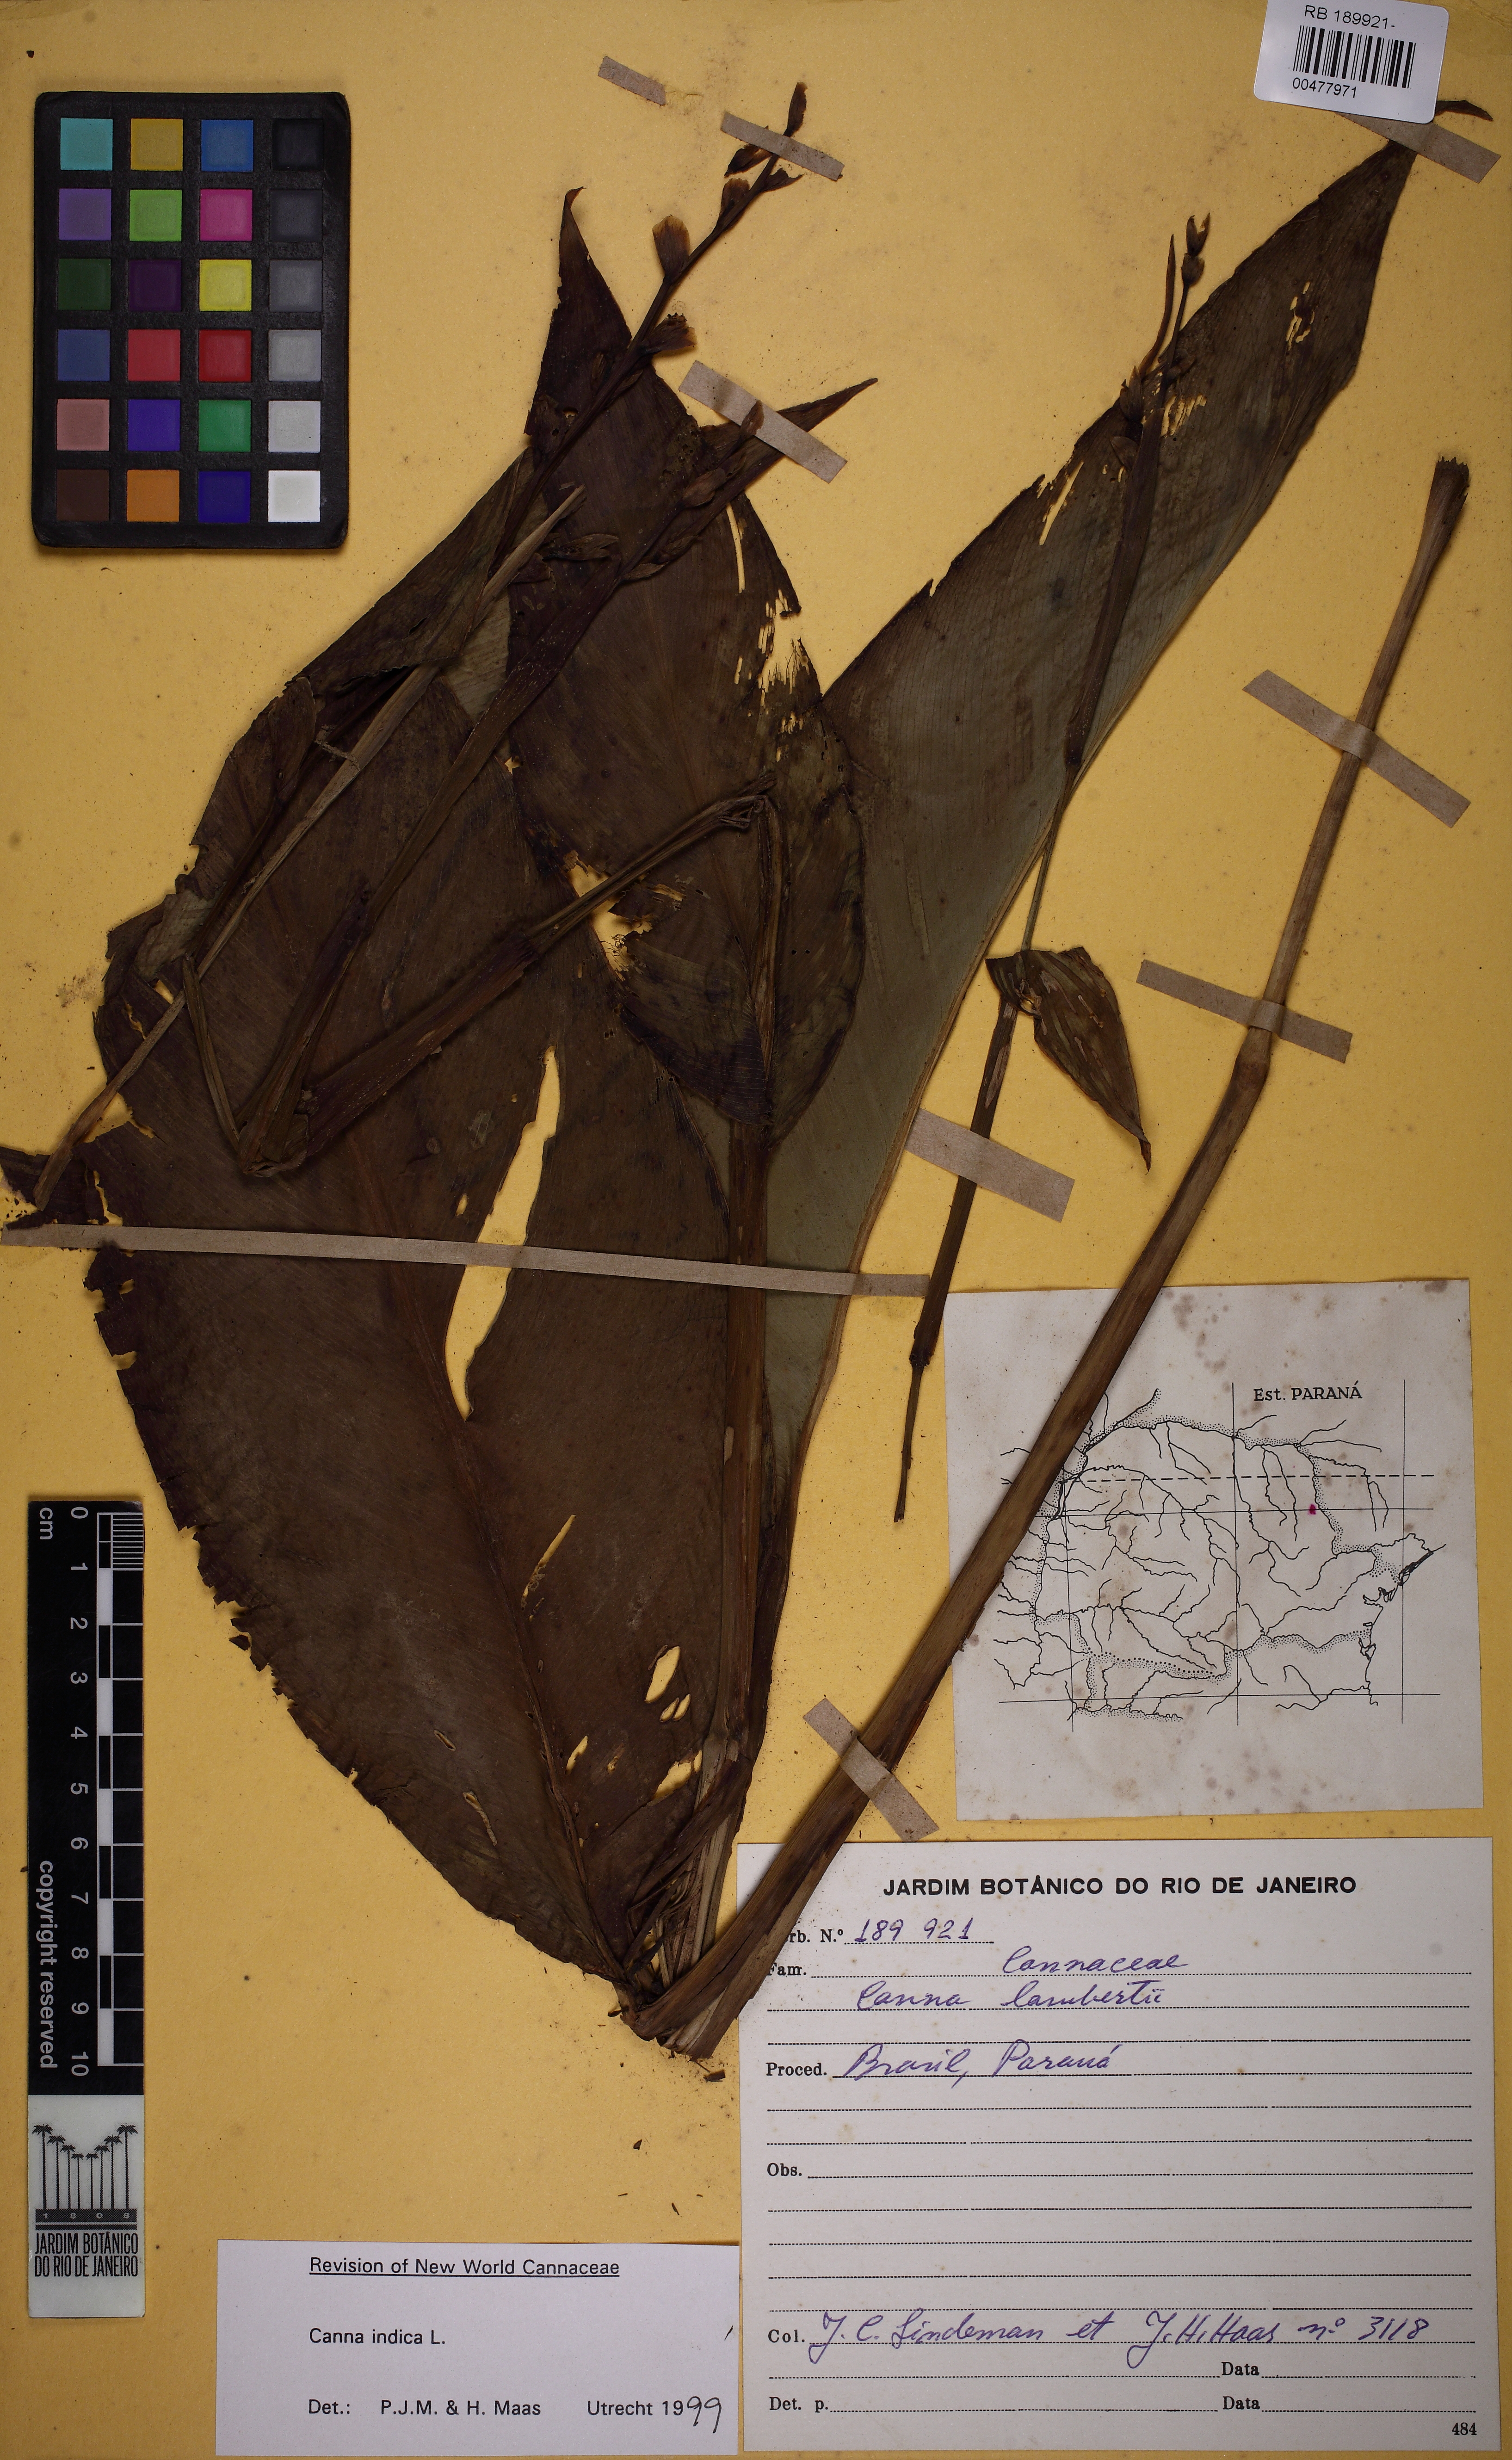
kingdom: Plantae
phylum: Tracheophyta
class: Liliopsida
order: Zingiberales
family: Cannaceae
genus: Canna
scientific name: Canna indica
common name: Indian shot
